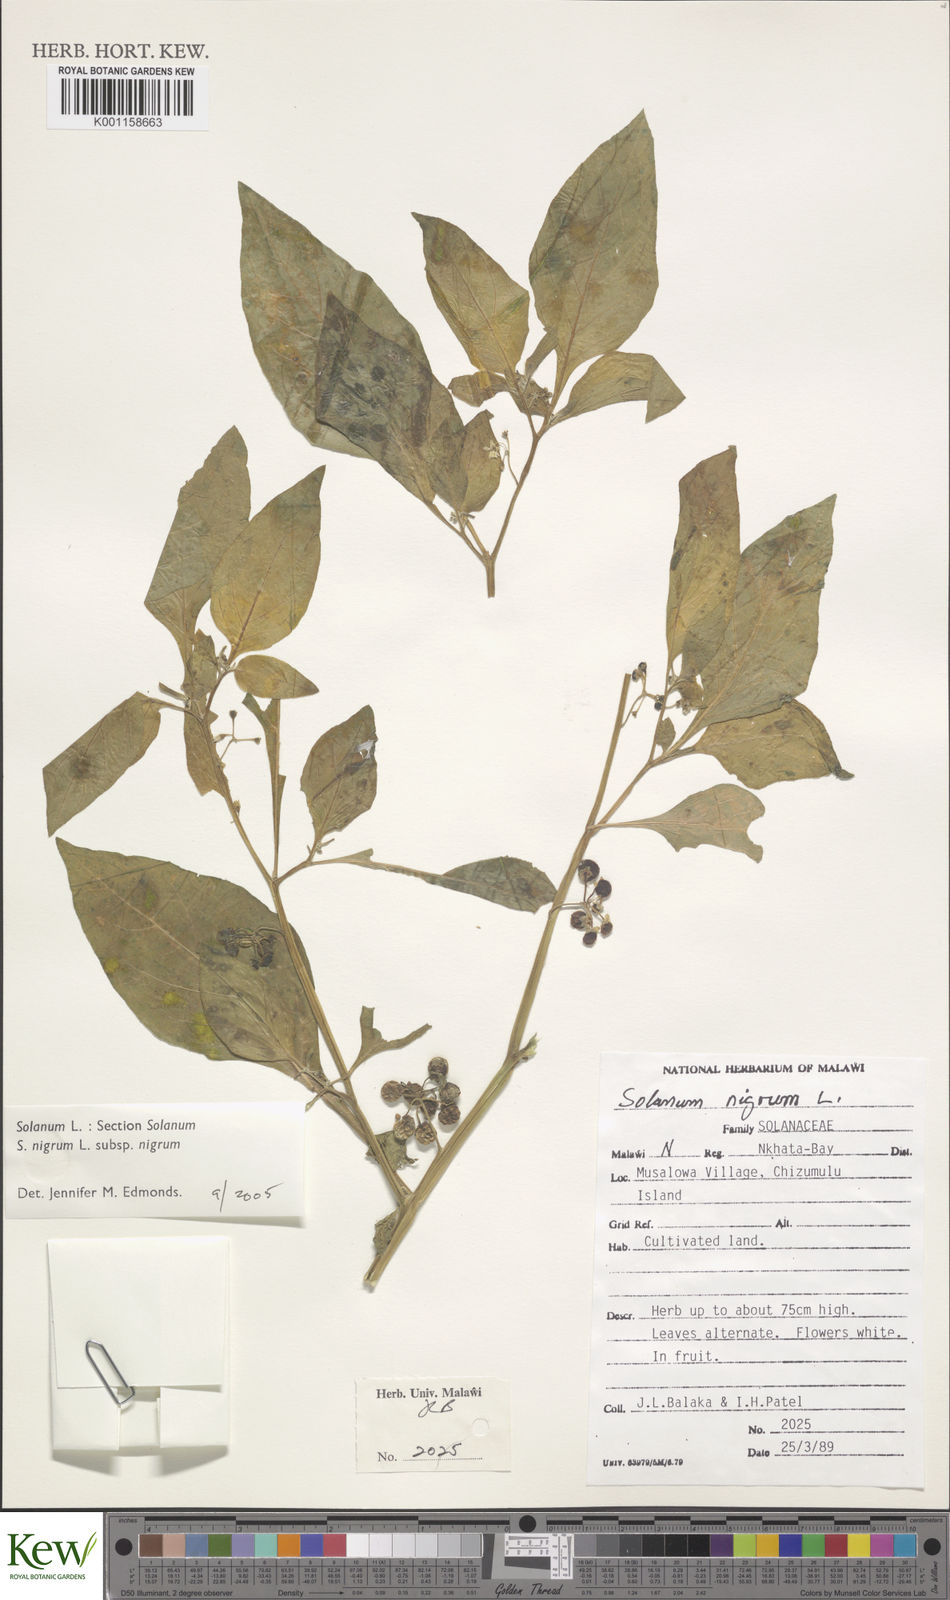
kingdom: Plantae
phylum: Tracheophyta
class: Magnoliopsida
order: Solanales
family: Solanaceae
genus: Solanum
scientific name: Solanum nigrum
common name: Black nightshade
